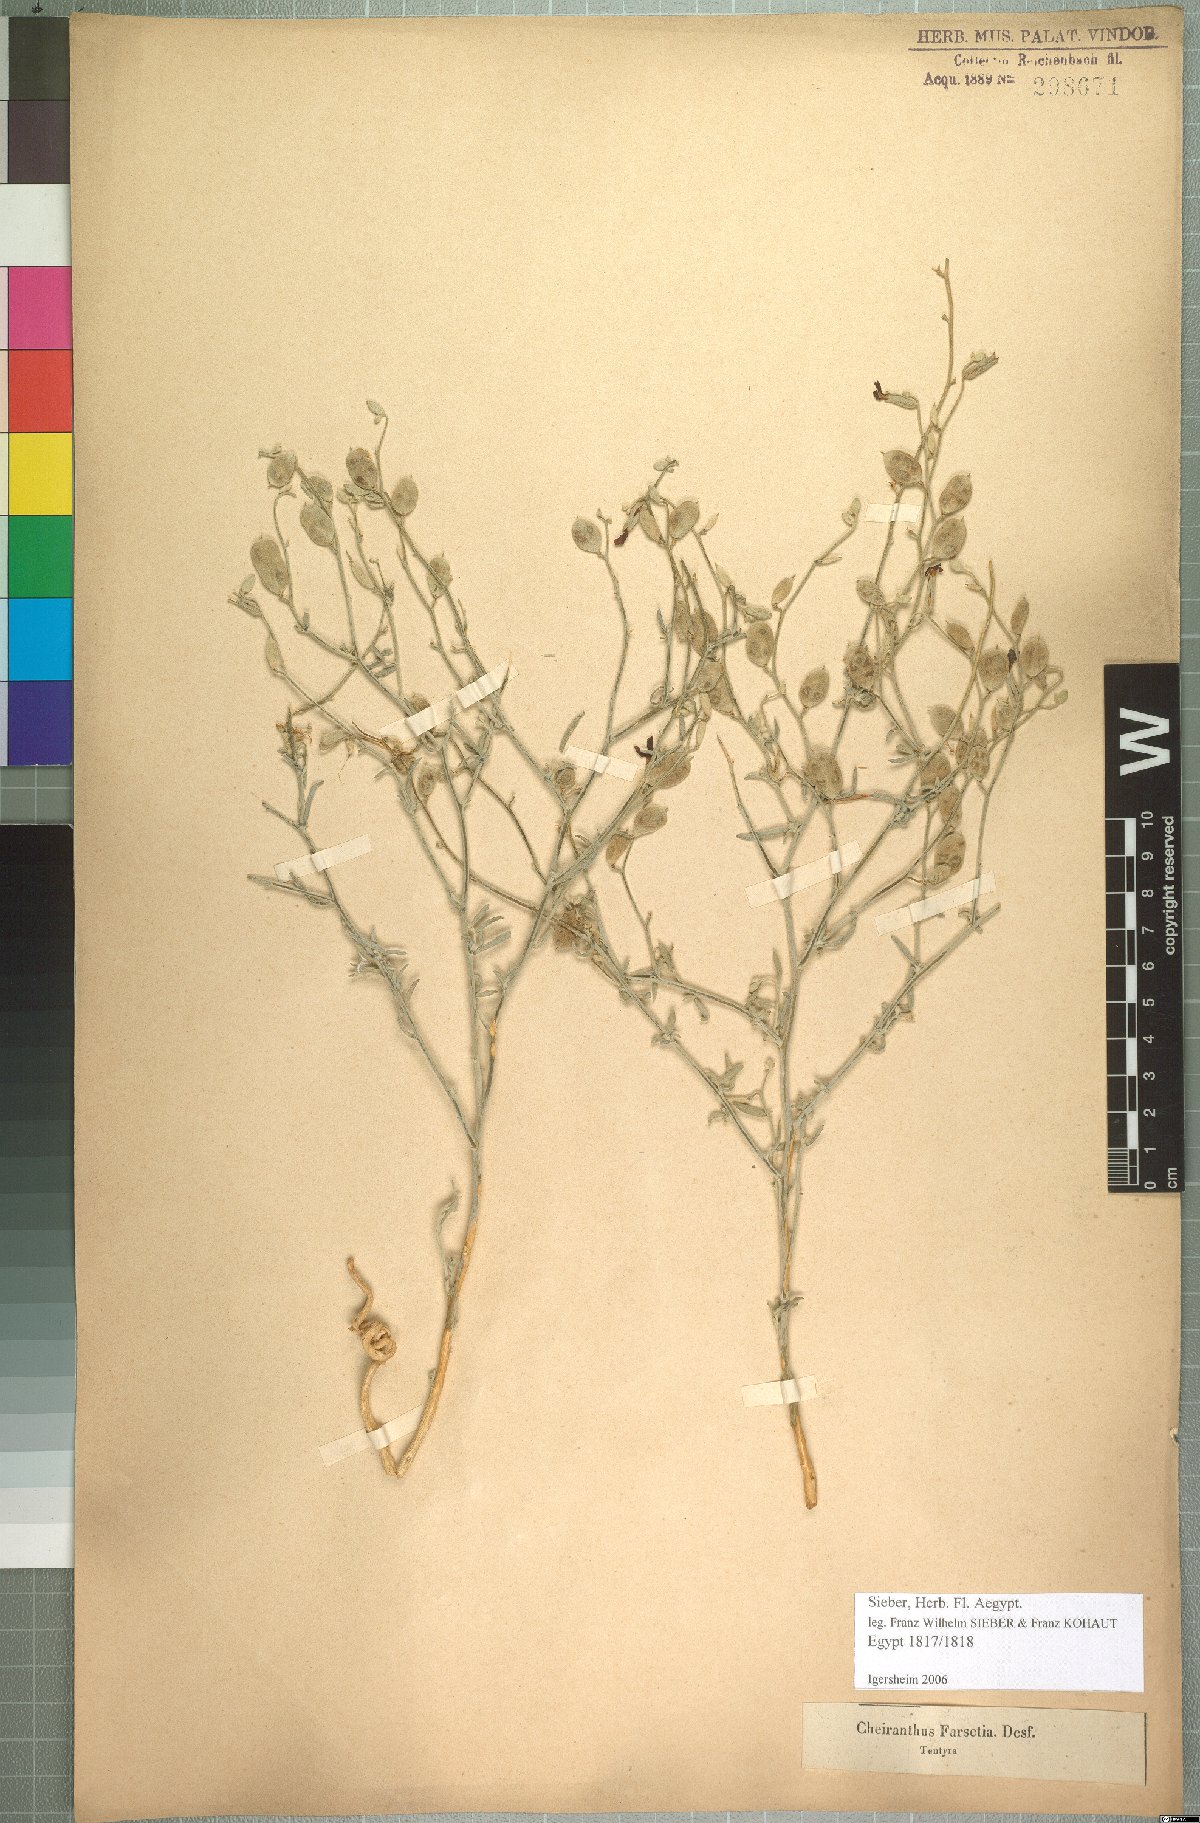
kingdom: Plantae
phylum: Tracheophyta
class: Magnoliopsida
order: Brassicales
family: Brassicaceae
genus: Farsetia
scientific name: Farsetia aegyptia
